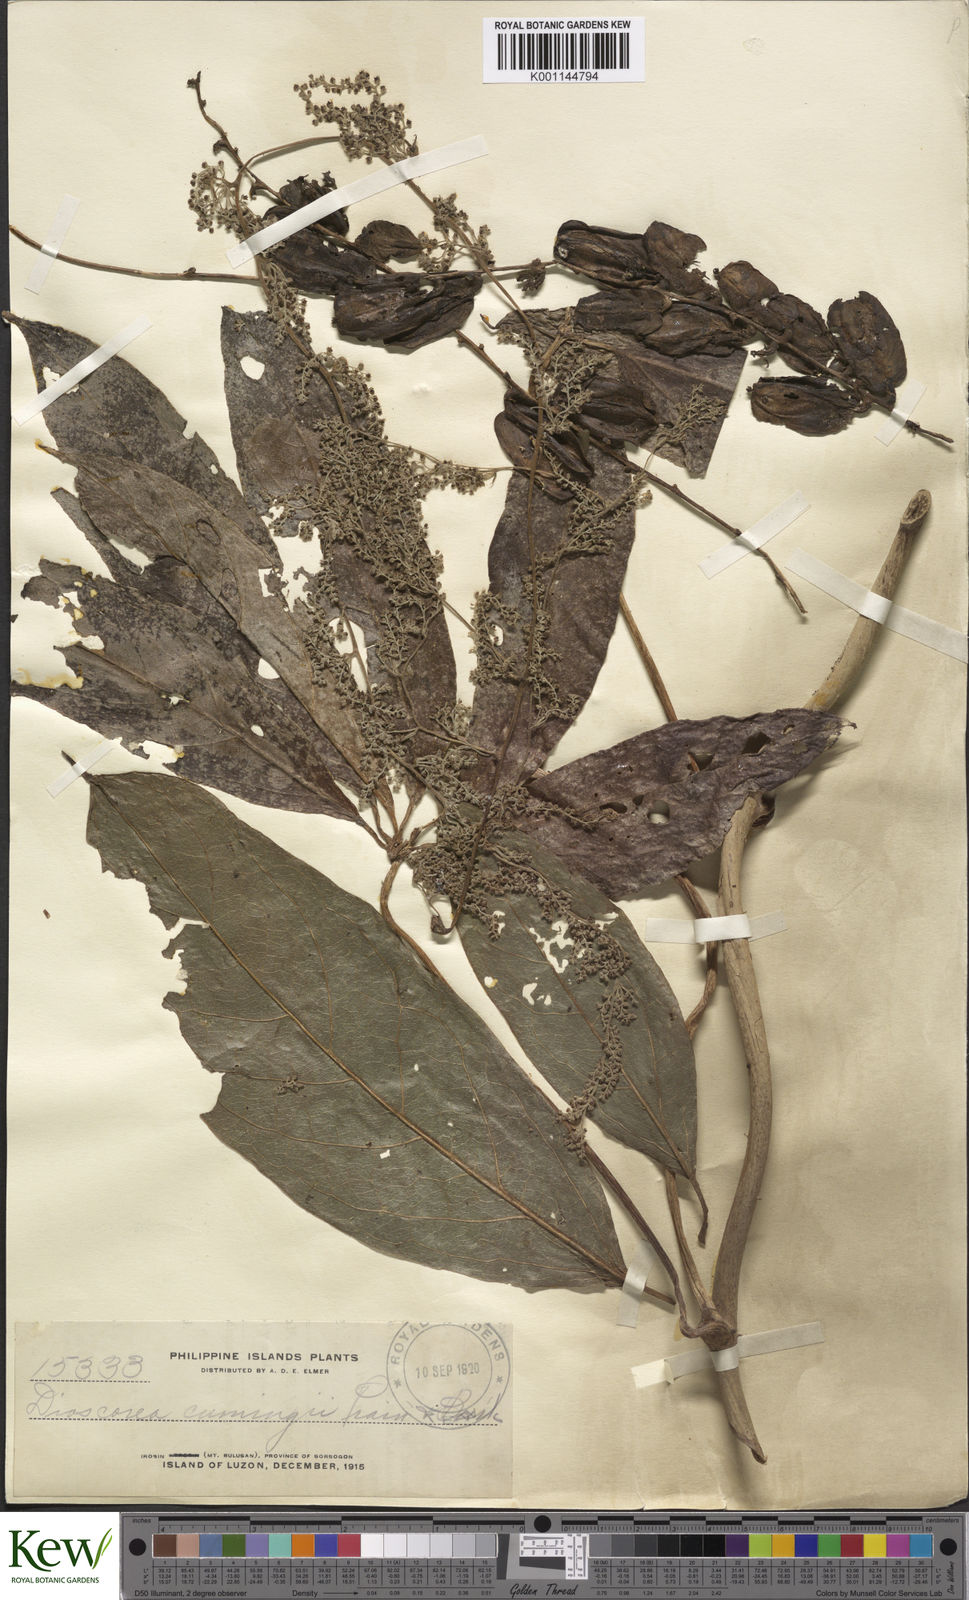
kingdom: Plantae
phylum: Tracheophyta
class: Liliopsida
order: Dioscoreales
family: Dioscoreaceae
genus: Dioscorea
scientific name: Dioscorea cumingii
